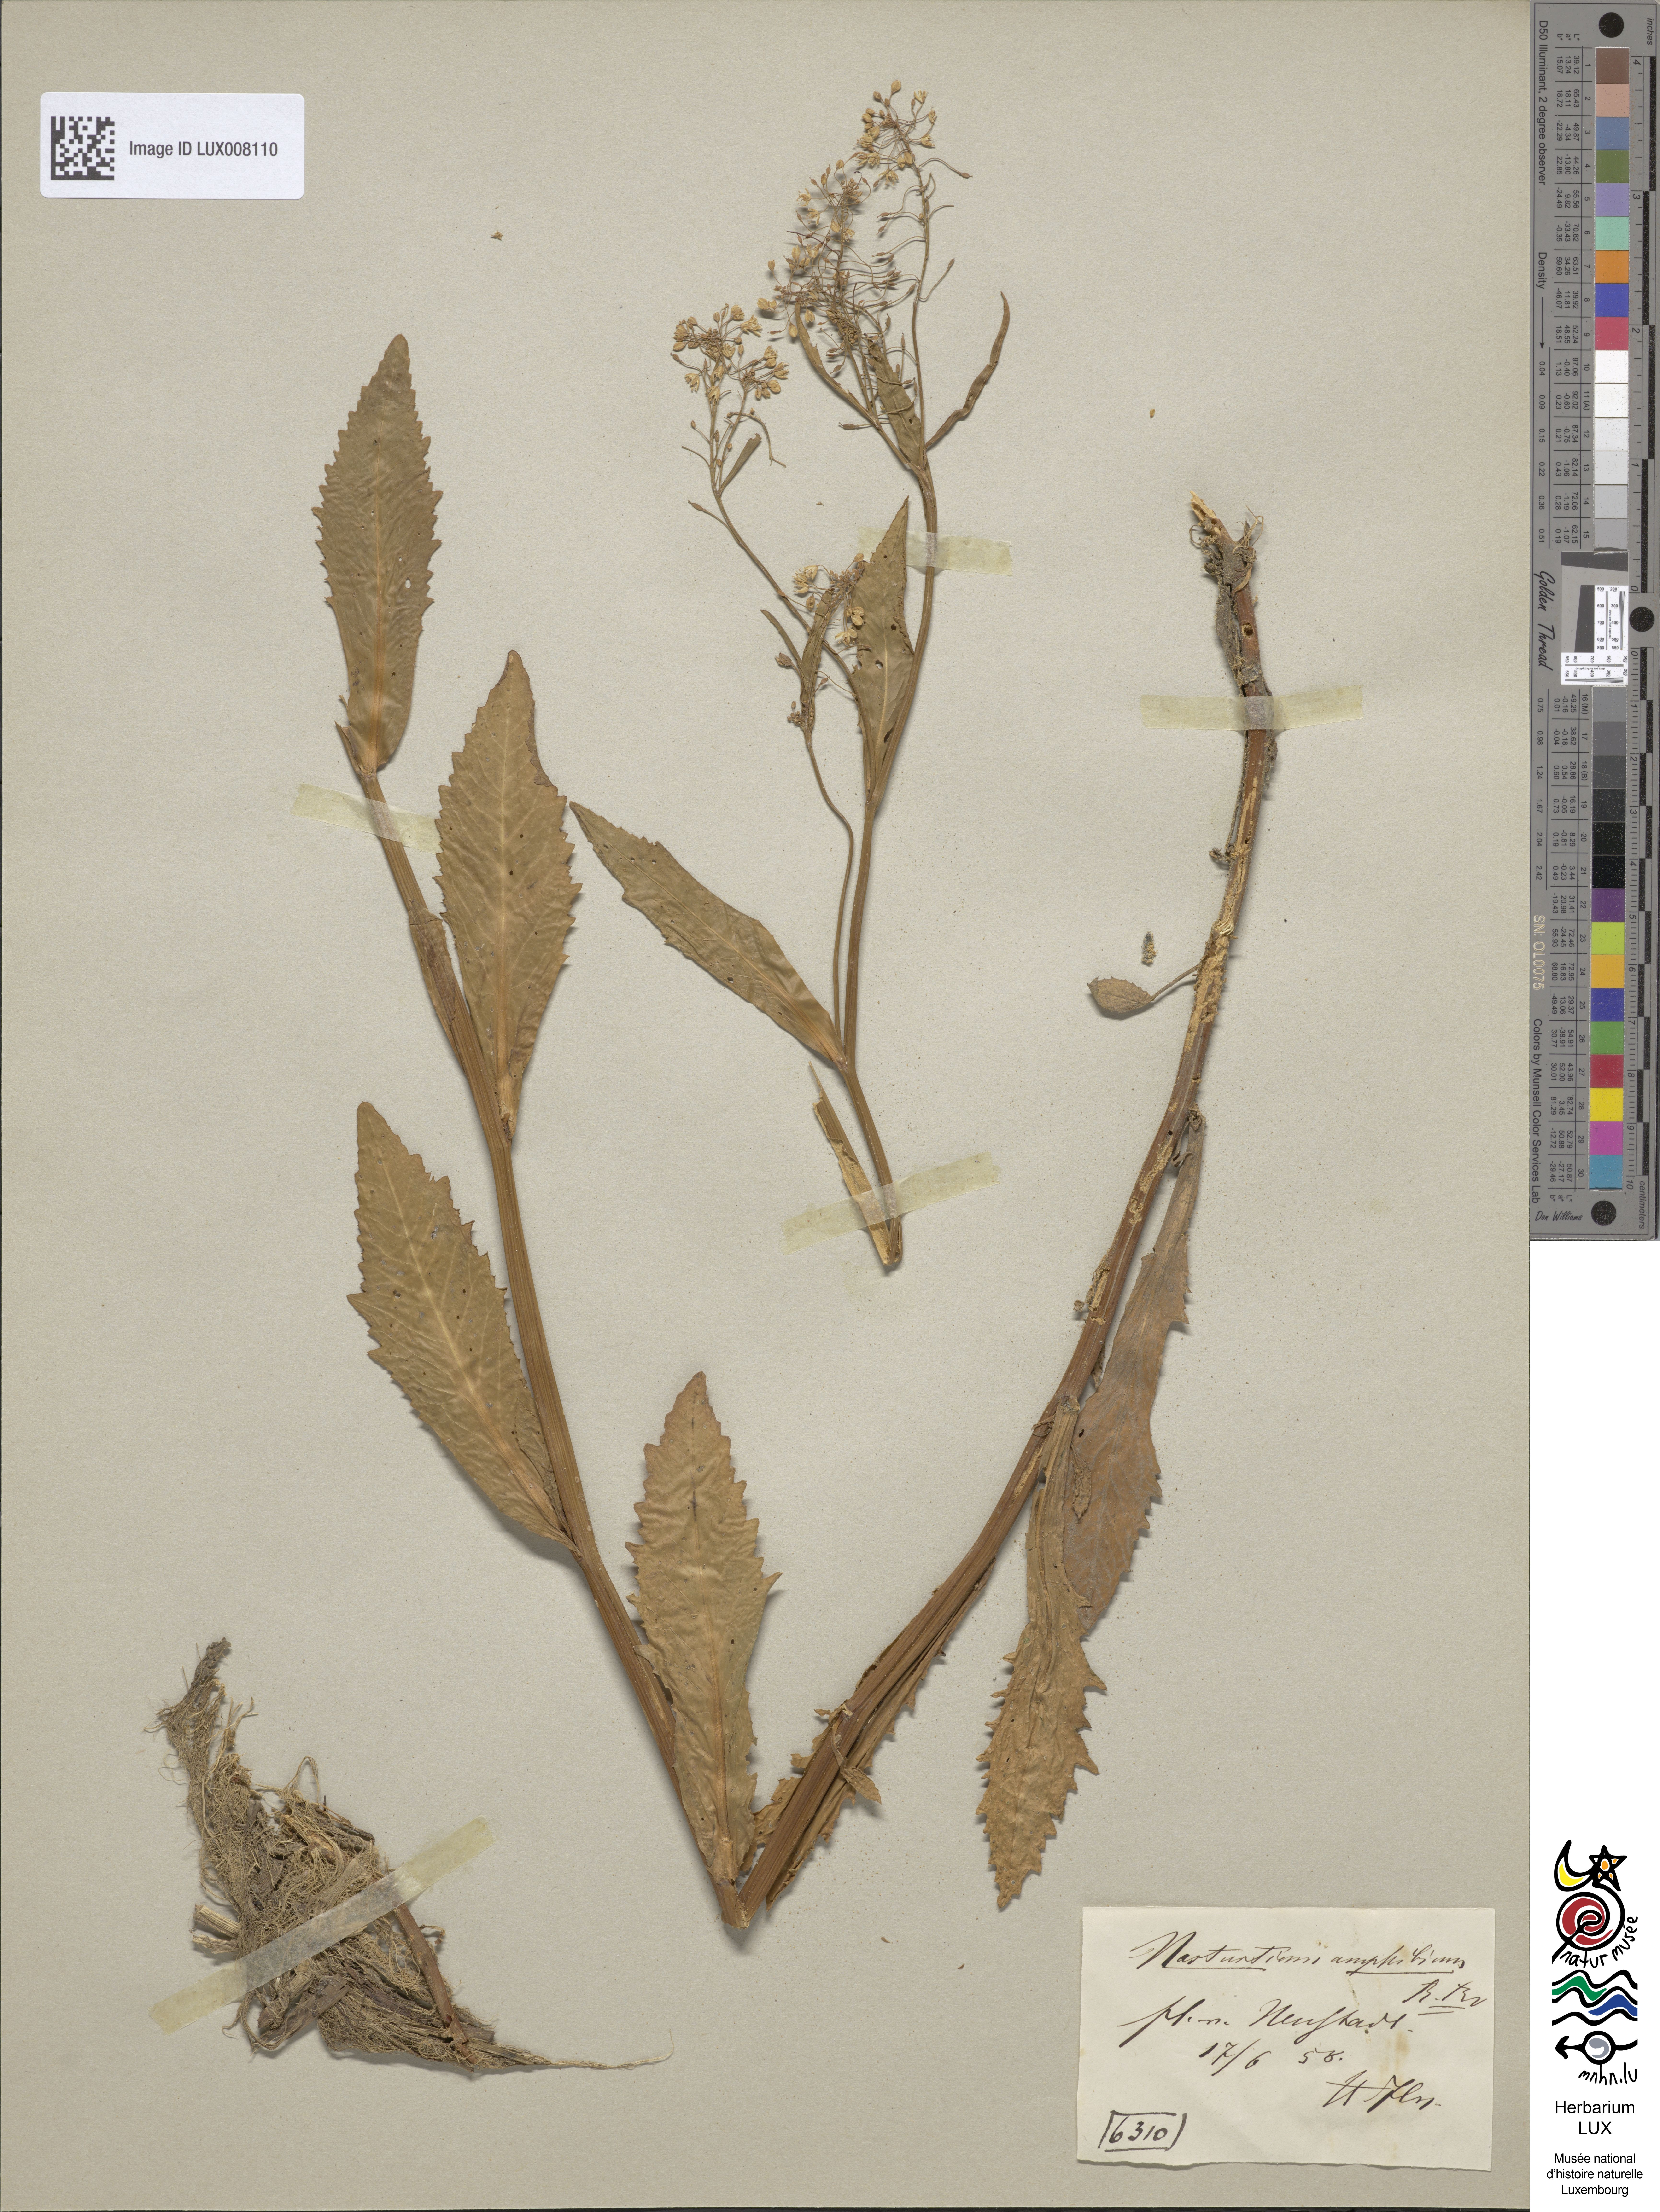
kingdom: Plantae
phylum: Tracheophyta
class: Magnoliopsida
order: Brassicales
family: Brassicaceae
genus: Rorippa
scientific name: Rorippa amphibia
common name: Great yellow-cress
